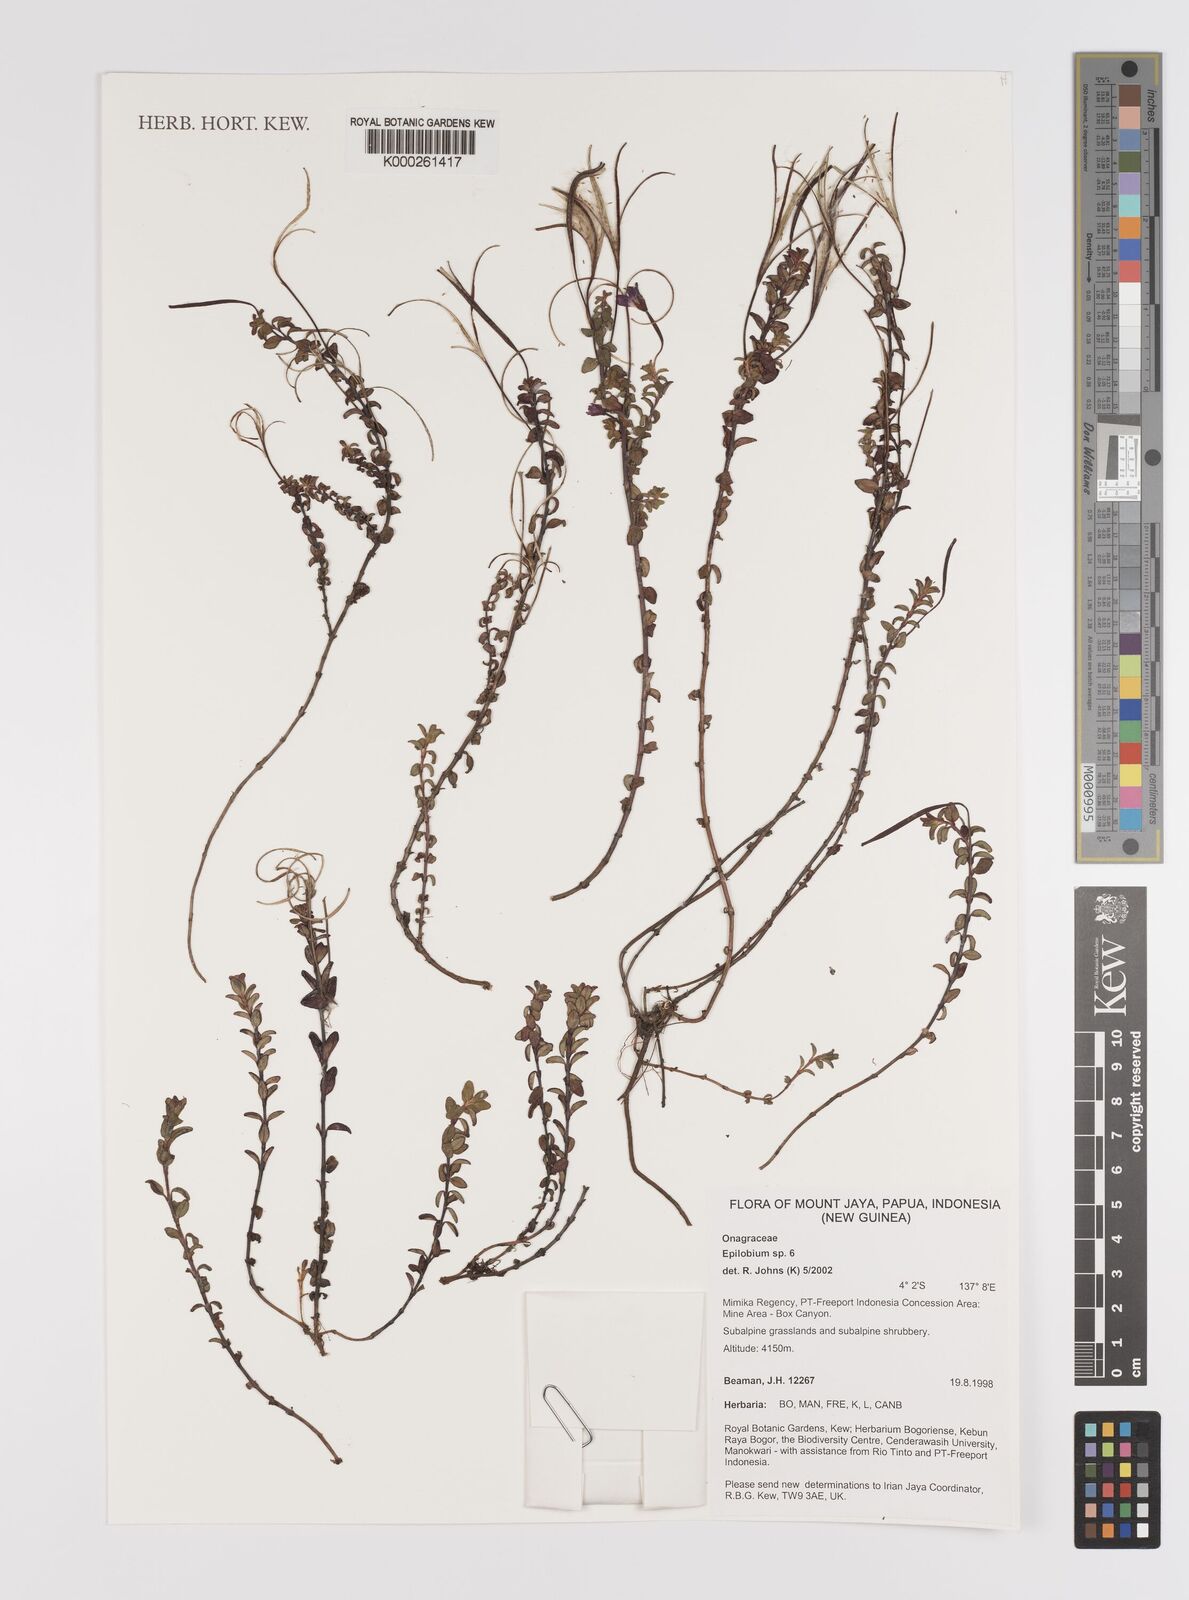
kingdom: Plantae
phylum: Tracheophyta
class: Magnoliopsida
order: Myrtales
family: Onagraceae
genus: Epilobium
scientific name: Epilobium
